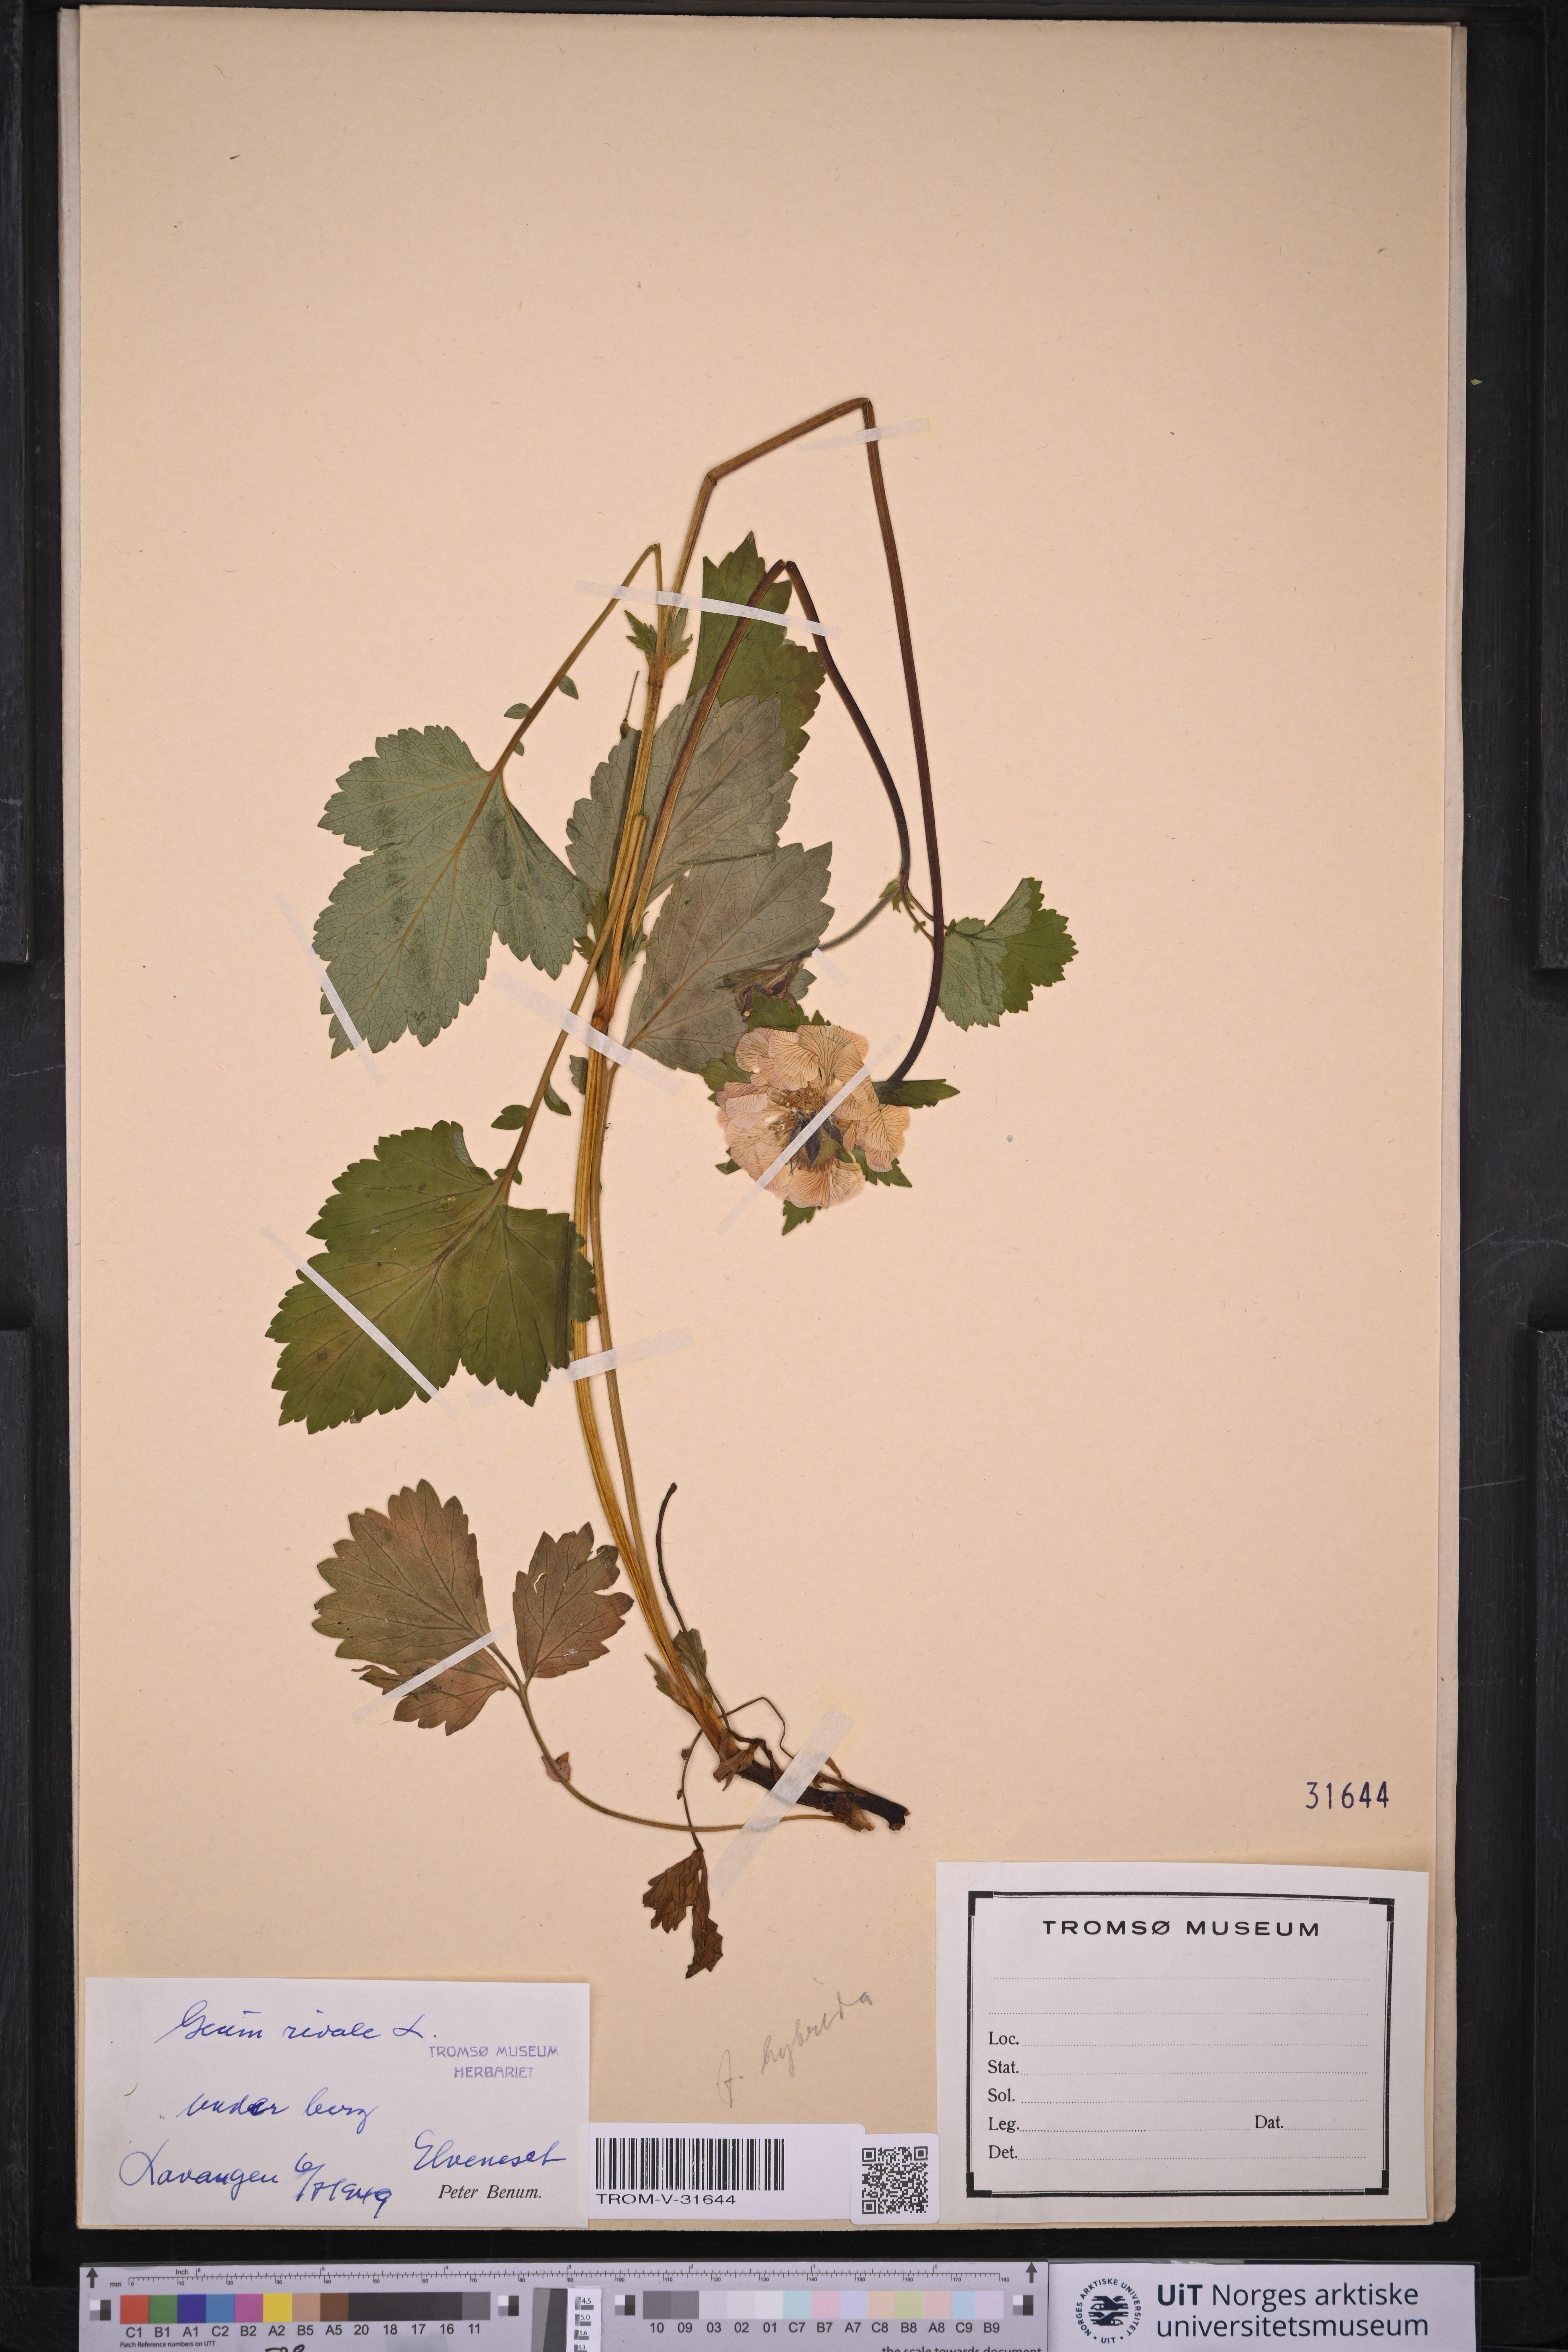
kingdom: Plantae
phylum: Tracheophyta
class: Magnoliopsida
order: Rosales
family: Rosaceae
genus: Geum
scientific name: Geum rivale
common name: Water avens
